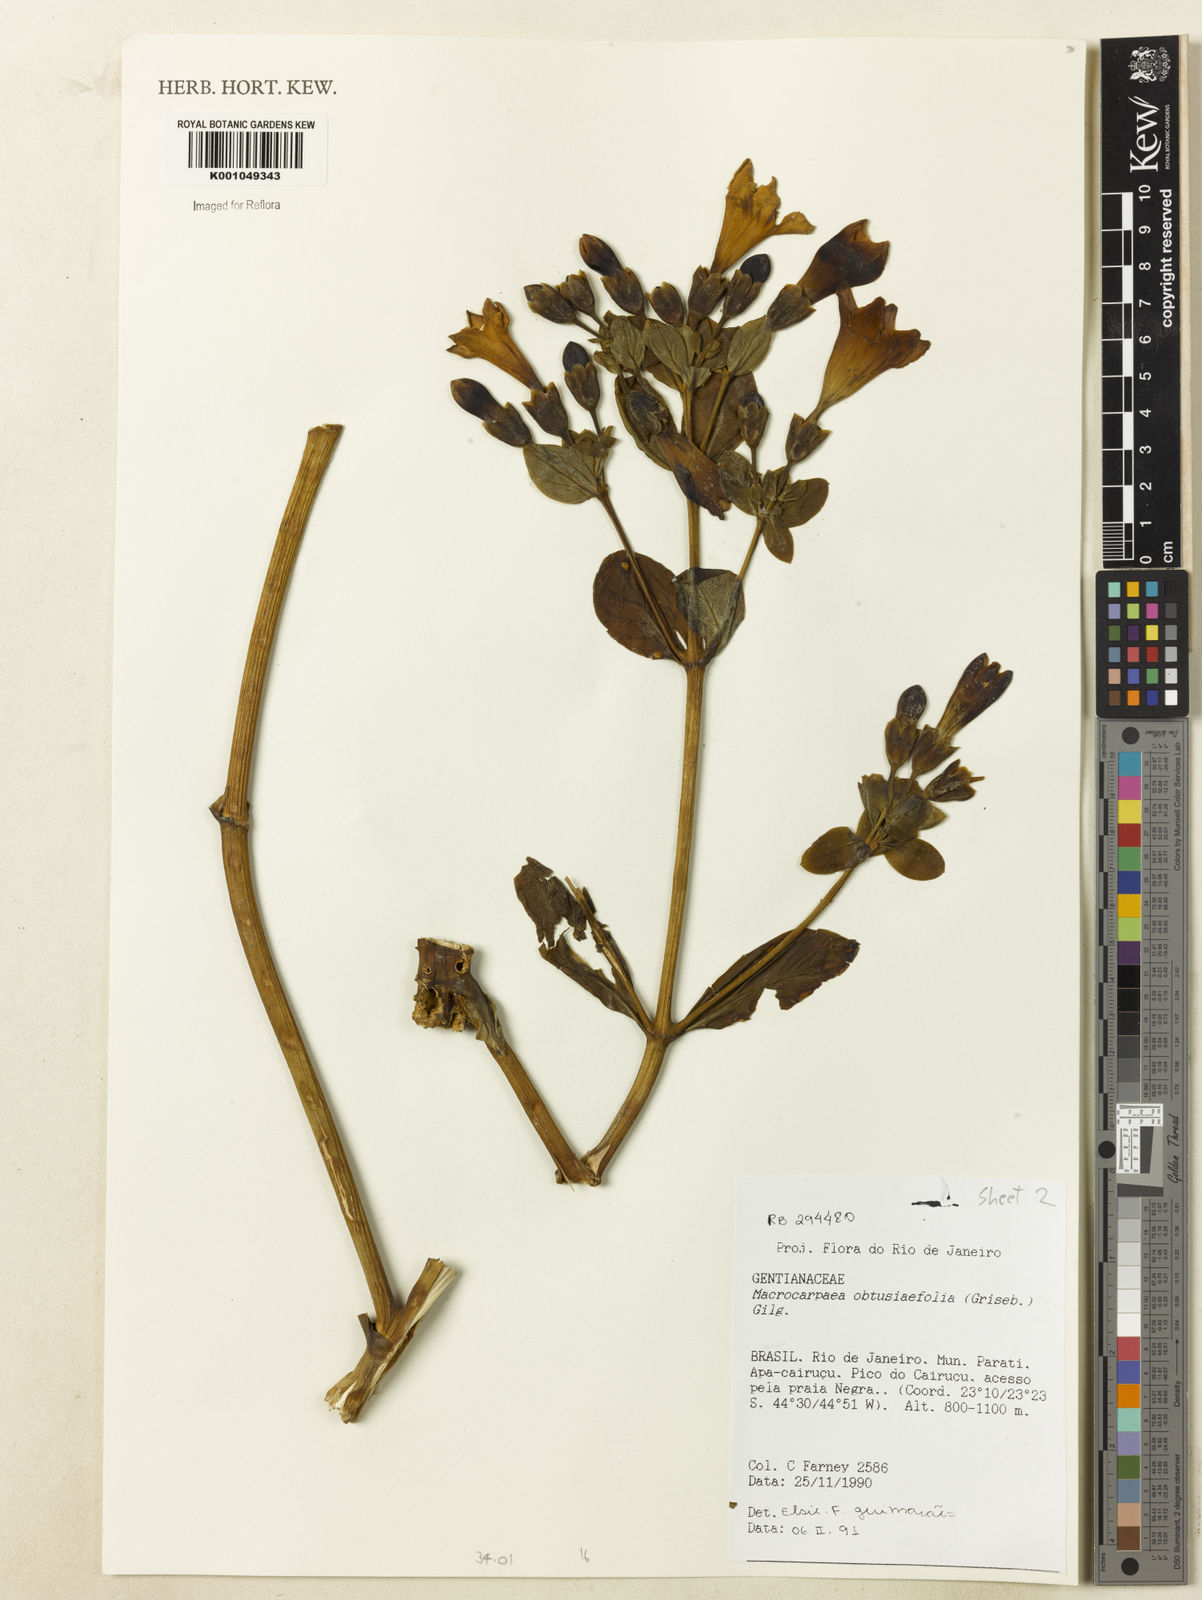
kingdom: Plantae
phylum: Tracheophyta
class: Magnoliopsida
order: Gentianales
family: Gentianaceae
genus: Macrocarpaea
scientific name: Macrocarpaea obtusifolia
